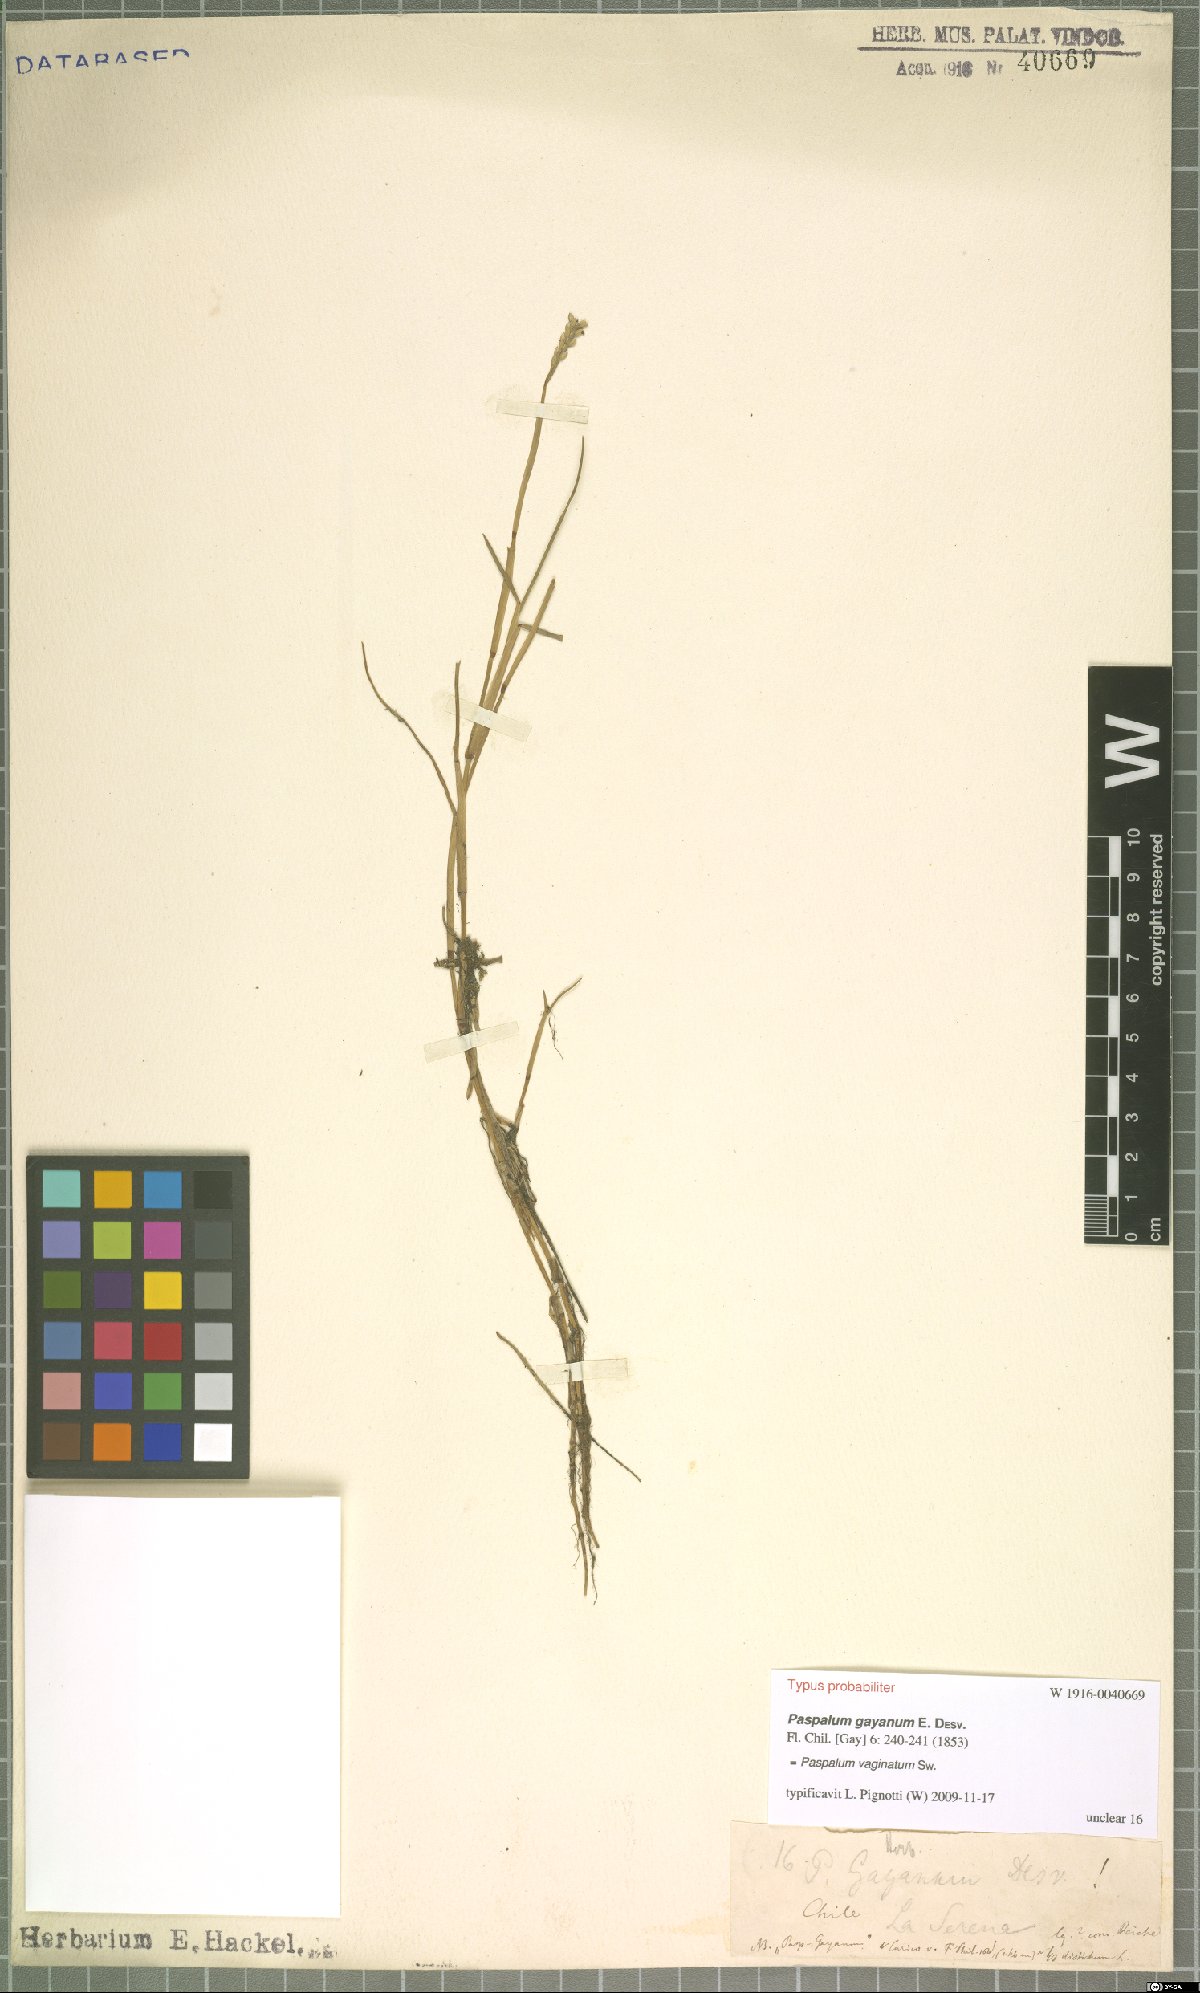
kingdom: Plantae
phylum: Tracheophyta
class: Liliopsida
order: Poales
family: Poaceae
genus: Paspalum
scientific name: Paspalum vaginatum
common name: Seashore paspalum
